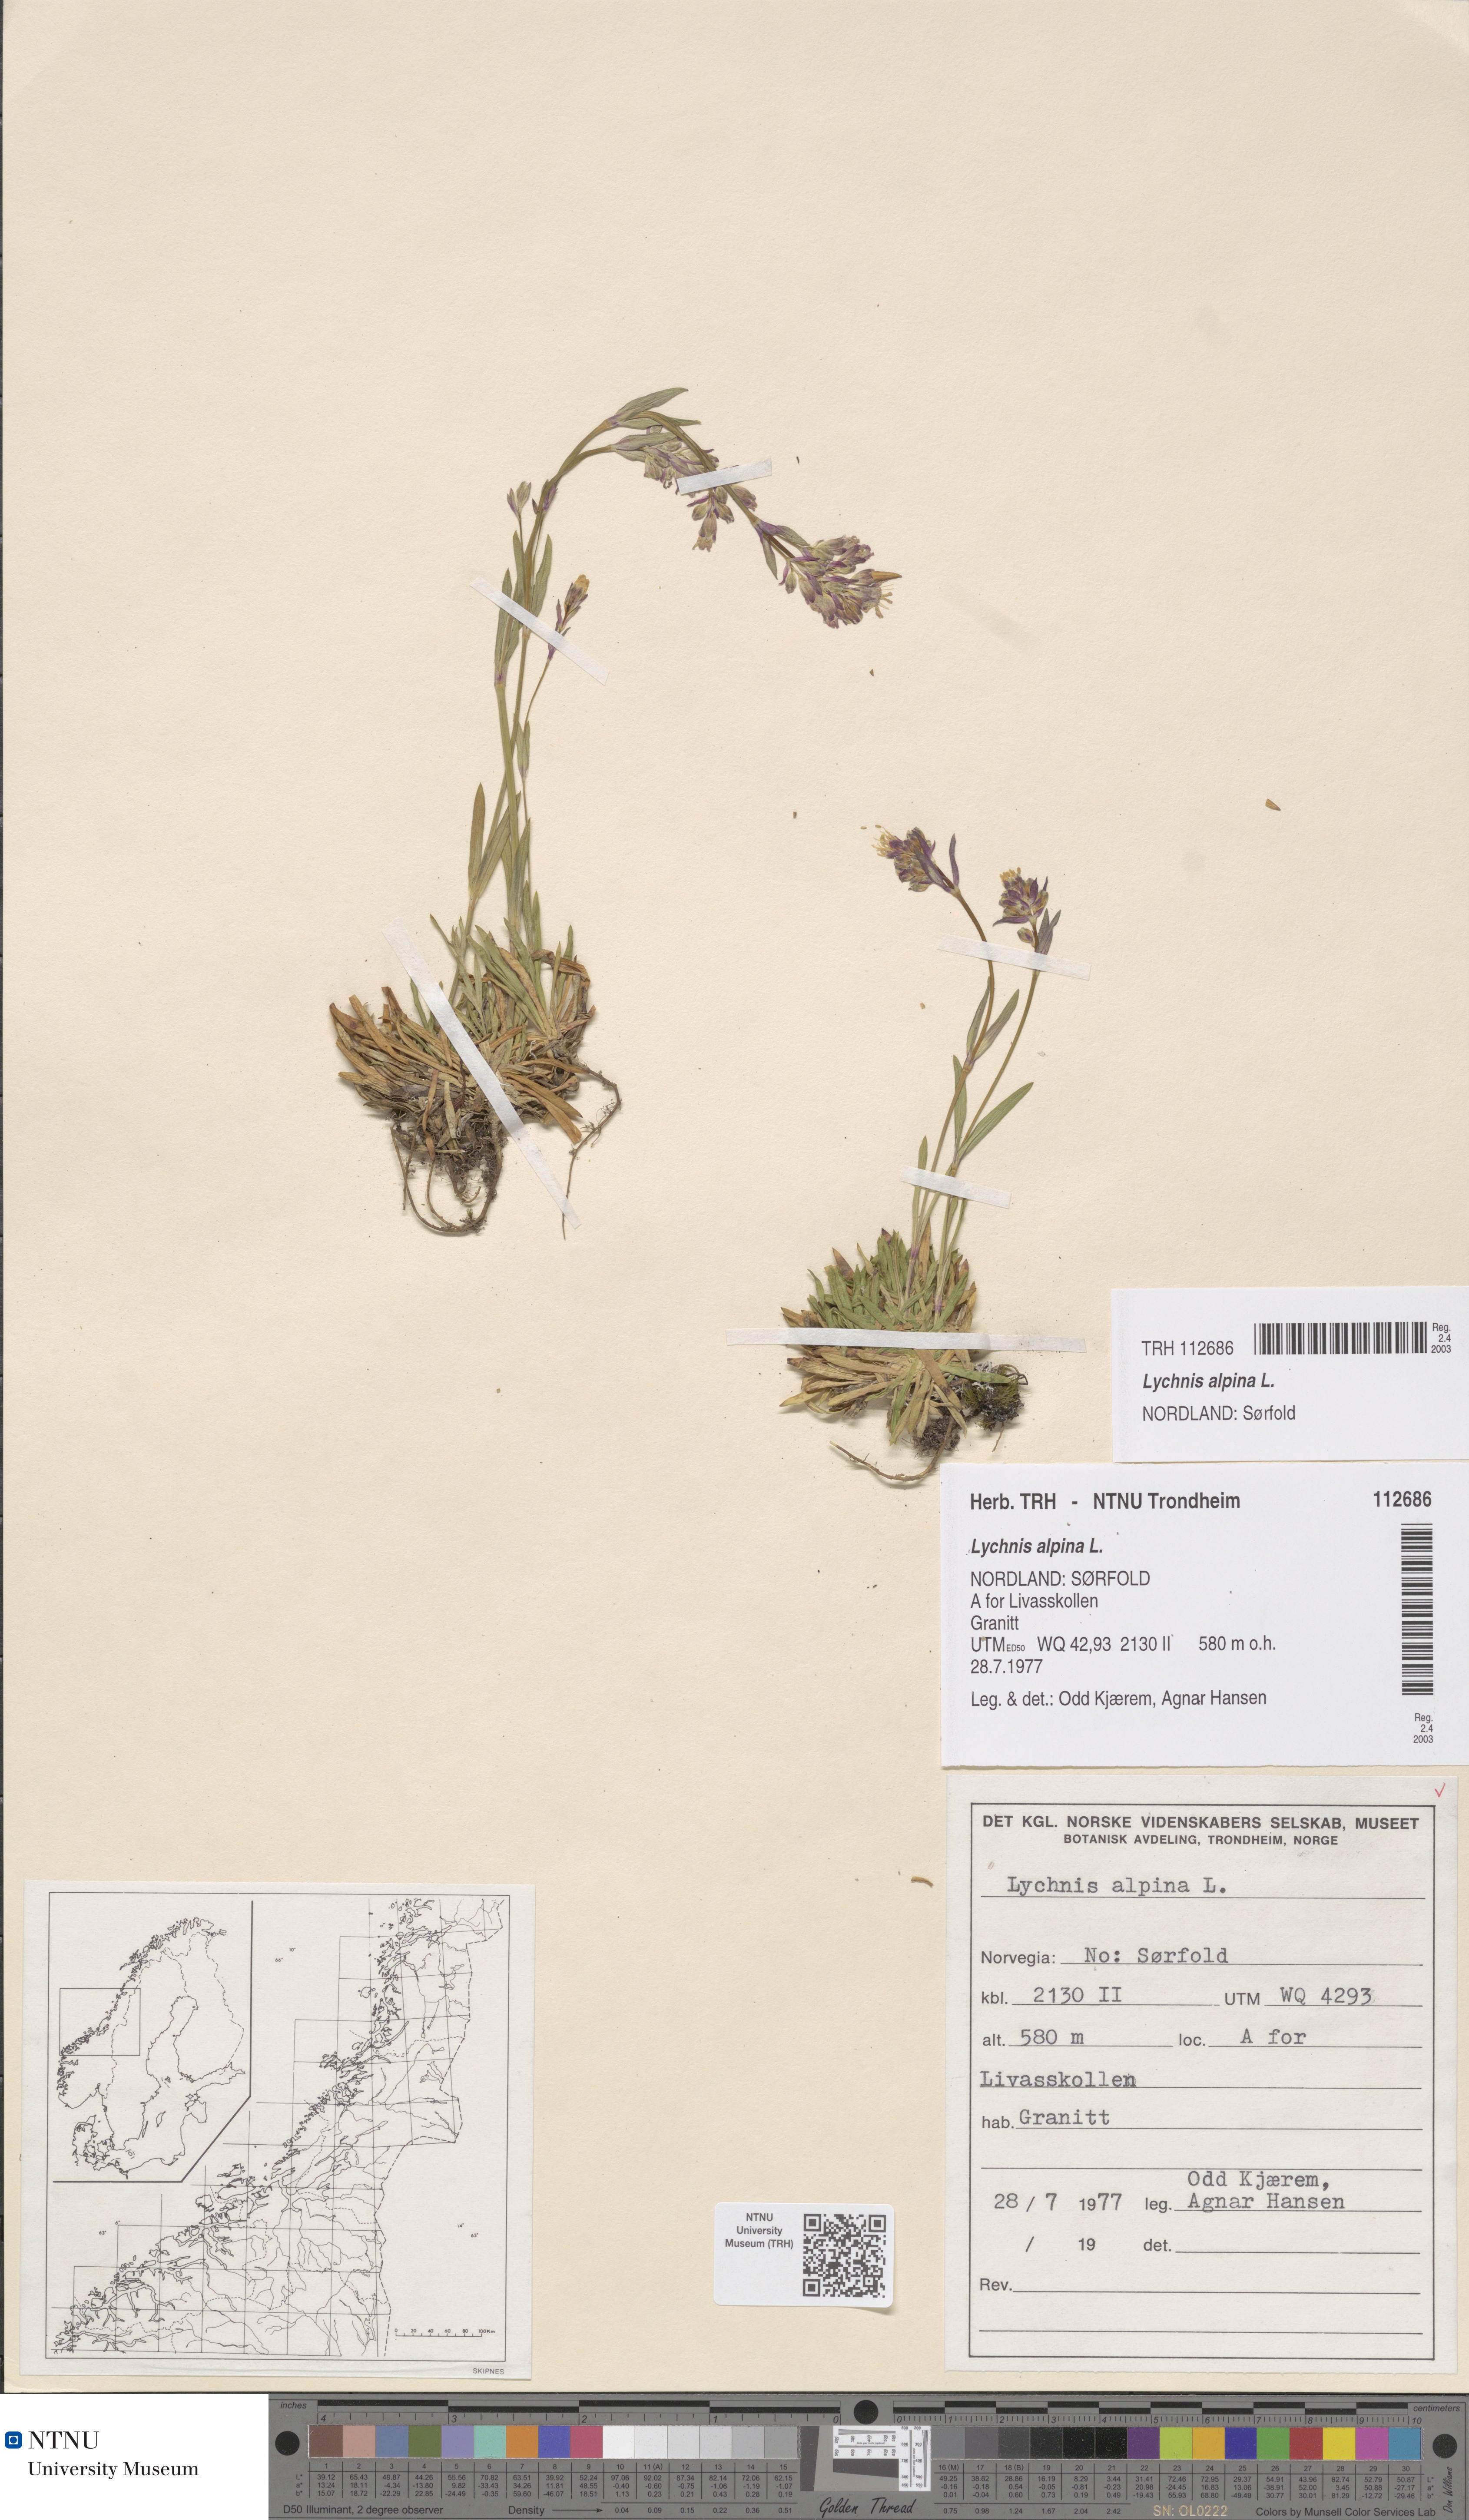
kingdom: Plantae
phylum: Tracheophyta
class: Magnoliopsida
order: Caryophyllales
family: Caryophyllaceae
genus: Viscaria
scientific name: Viscaria alpina
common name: Alpine campion
